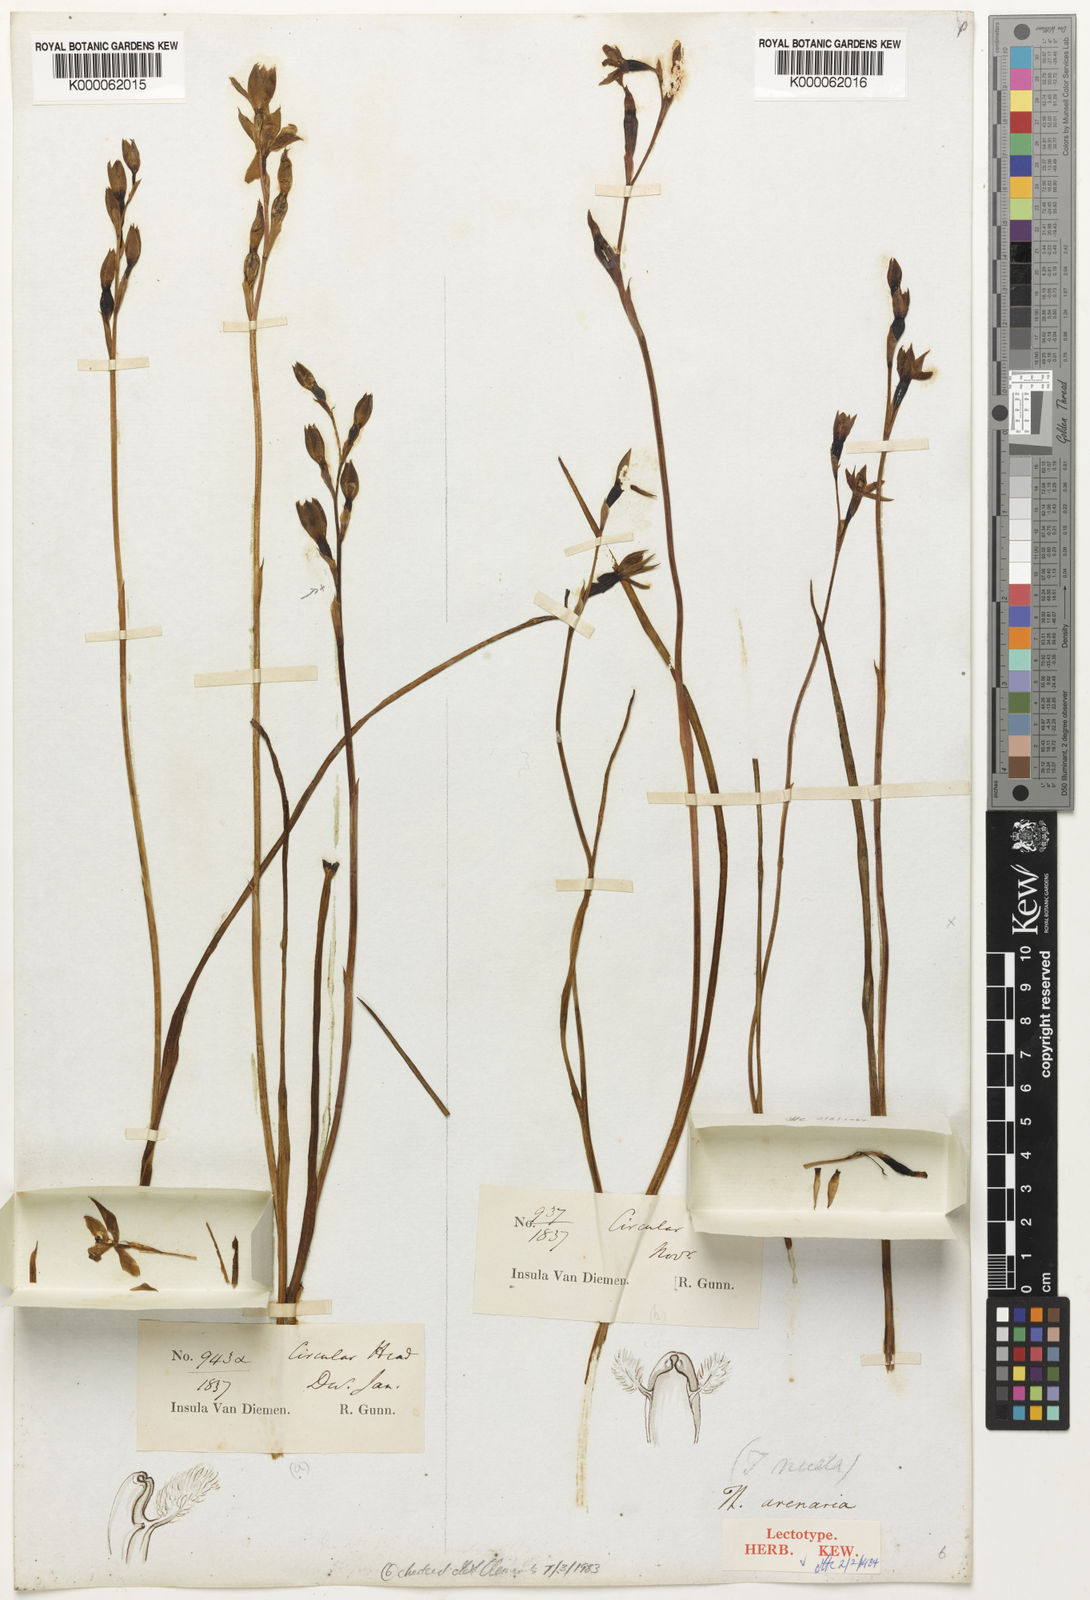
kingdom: Plantae
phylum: Tracheophyta
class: Liliopsida
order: Asparagales
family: Orchidaceae
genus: Thelymitra
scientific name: Thelymitra arenaria
